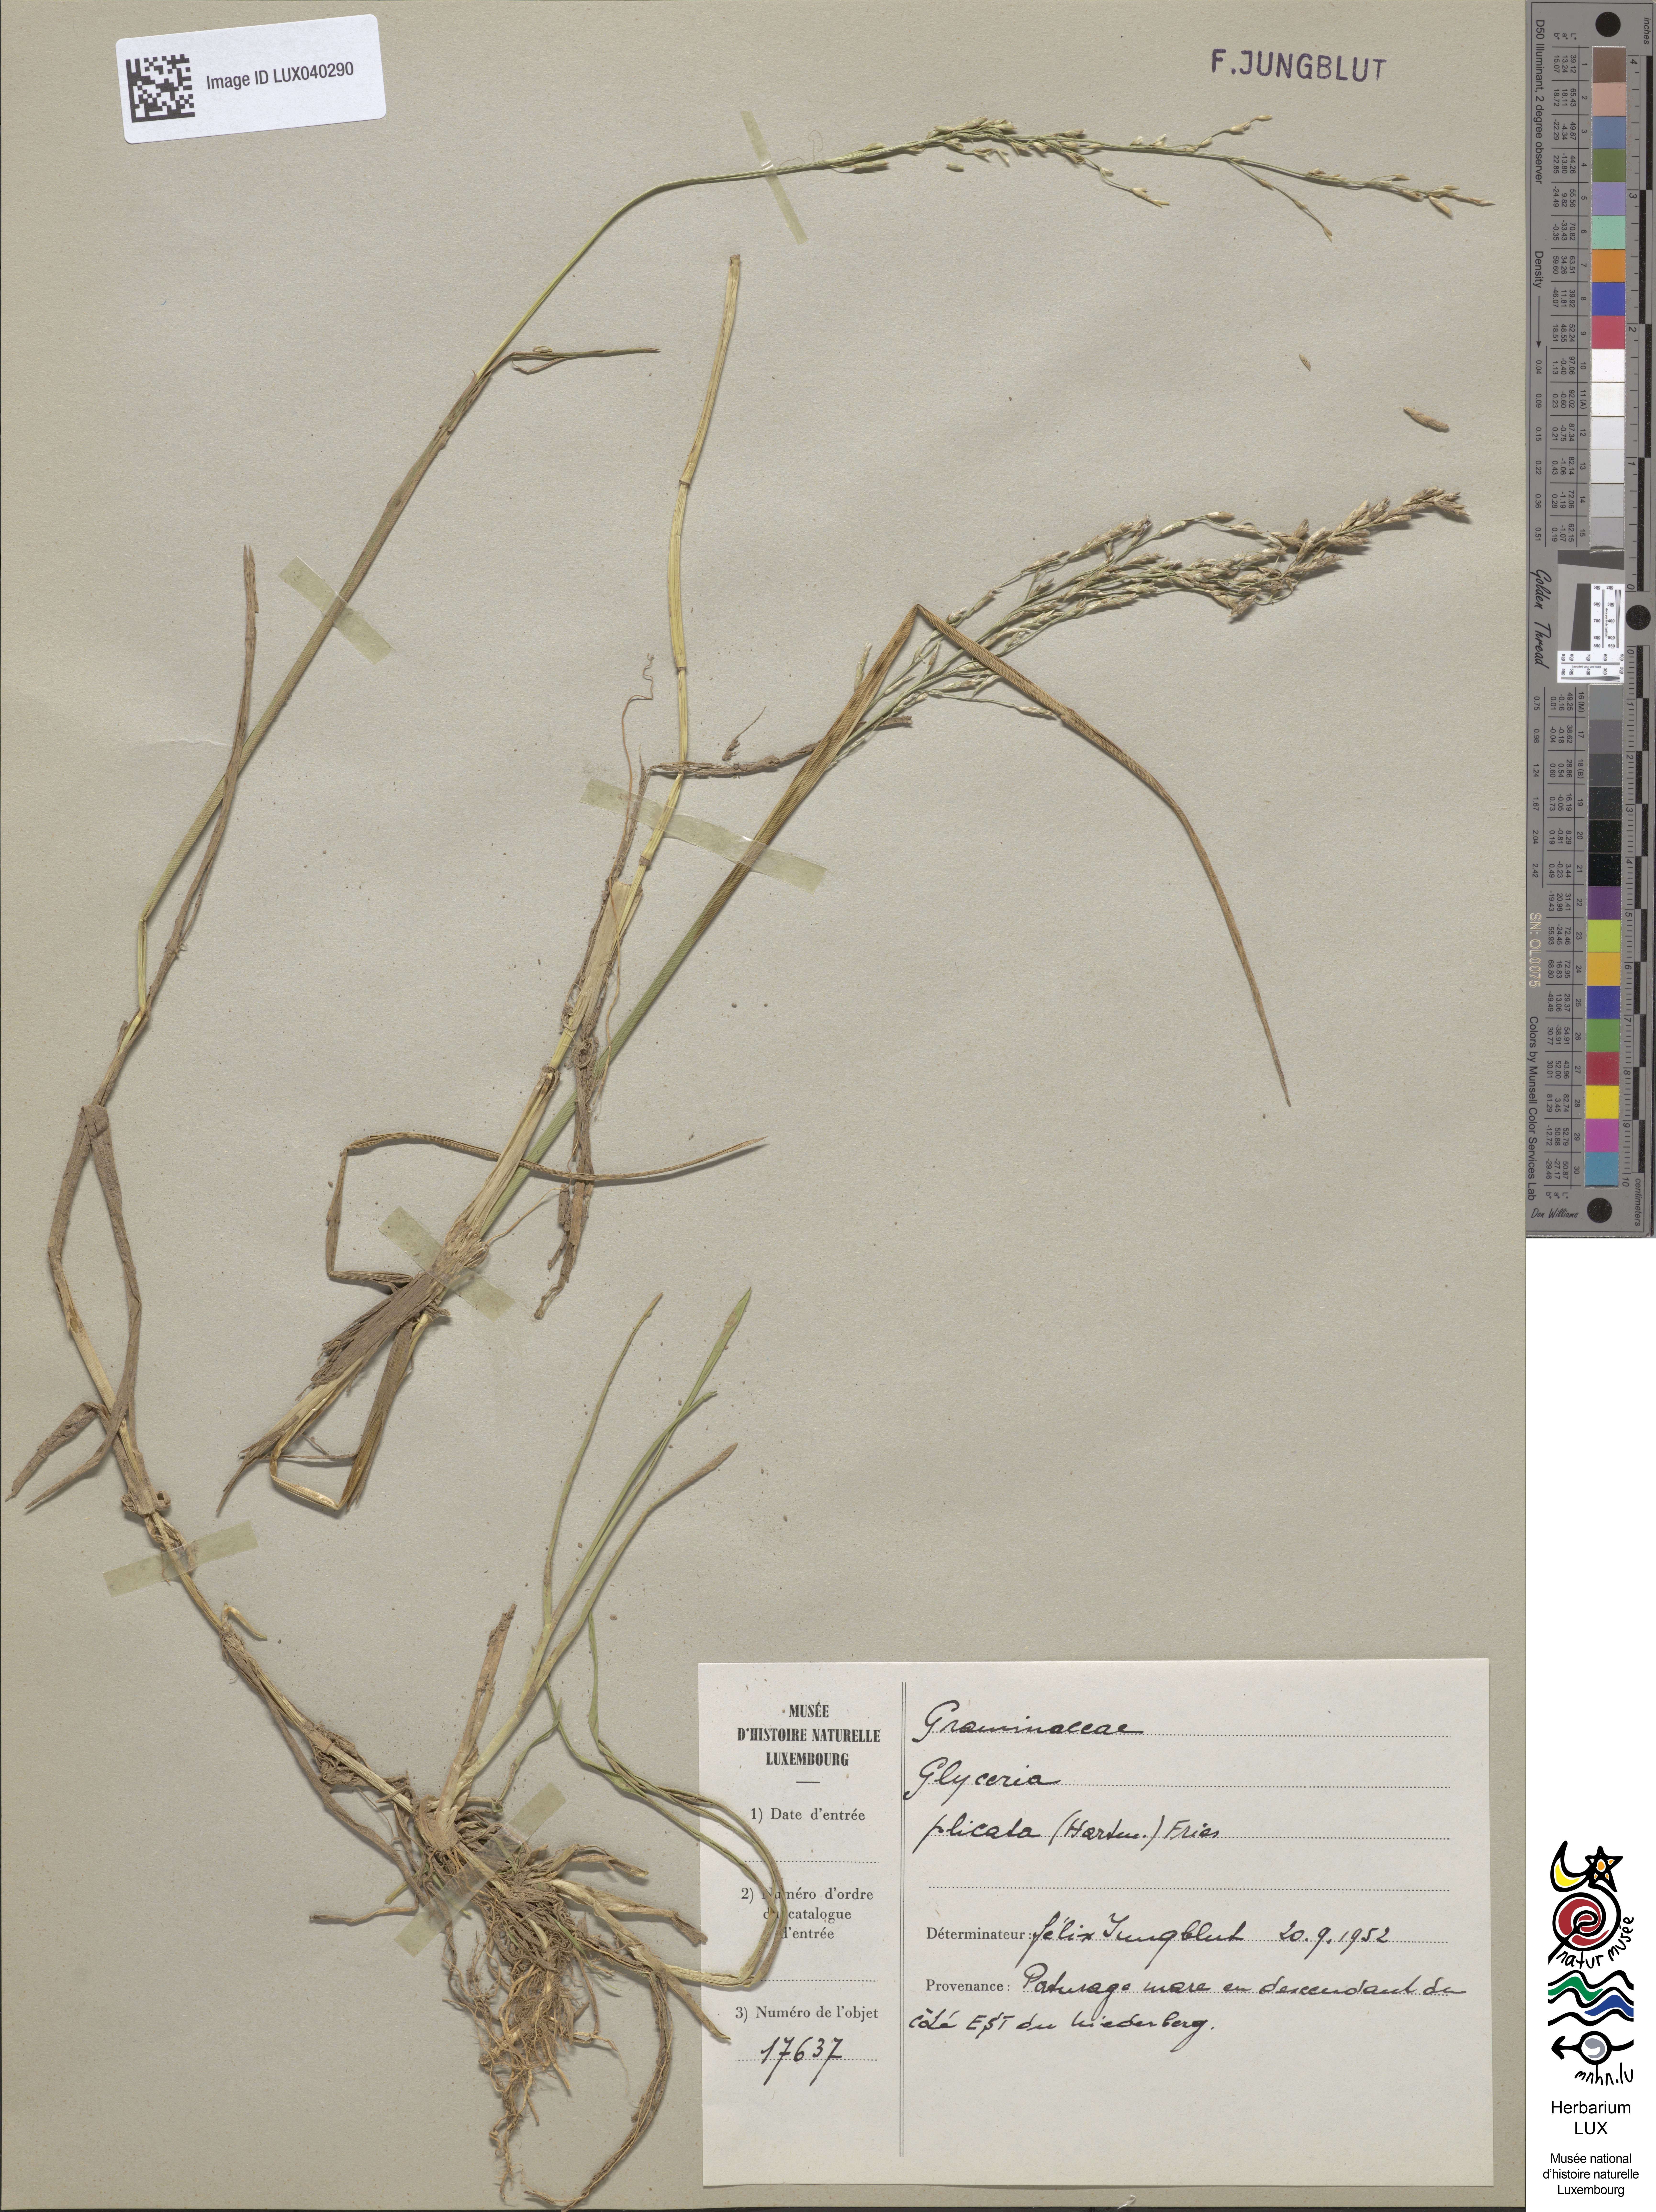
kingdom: Plantae
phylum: Tracheophyta
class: Liliopsida
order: Poales
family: Poaceae
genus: Glyceria
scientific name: Glyceria notata
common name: Plicate sweet-grass
